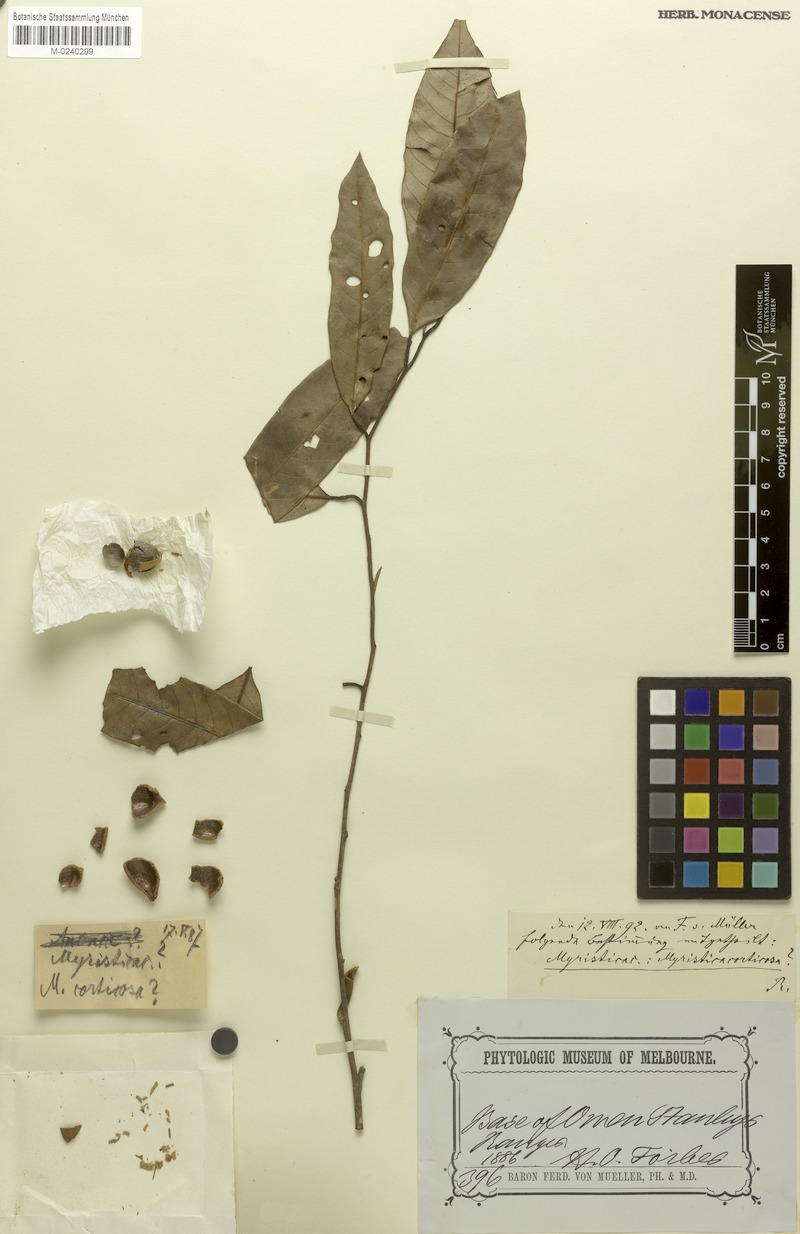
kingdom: Plantae
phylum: Tracheophyta
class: Magnoliopsida
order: Magnoliales
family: Myristicaceae
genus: Myristica
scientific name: Myristica sogeriensis
